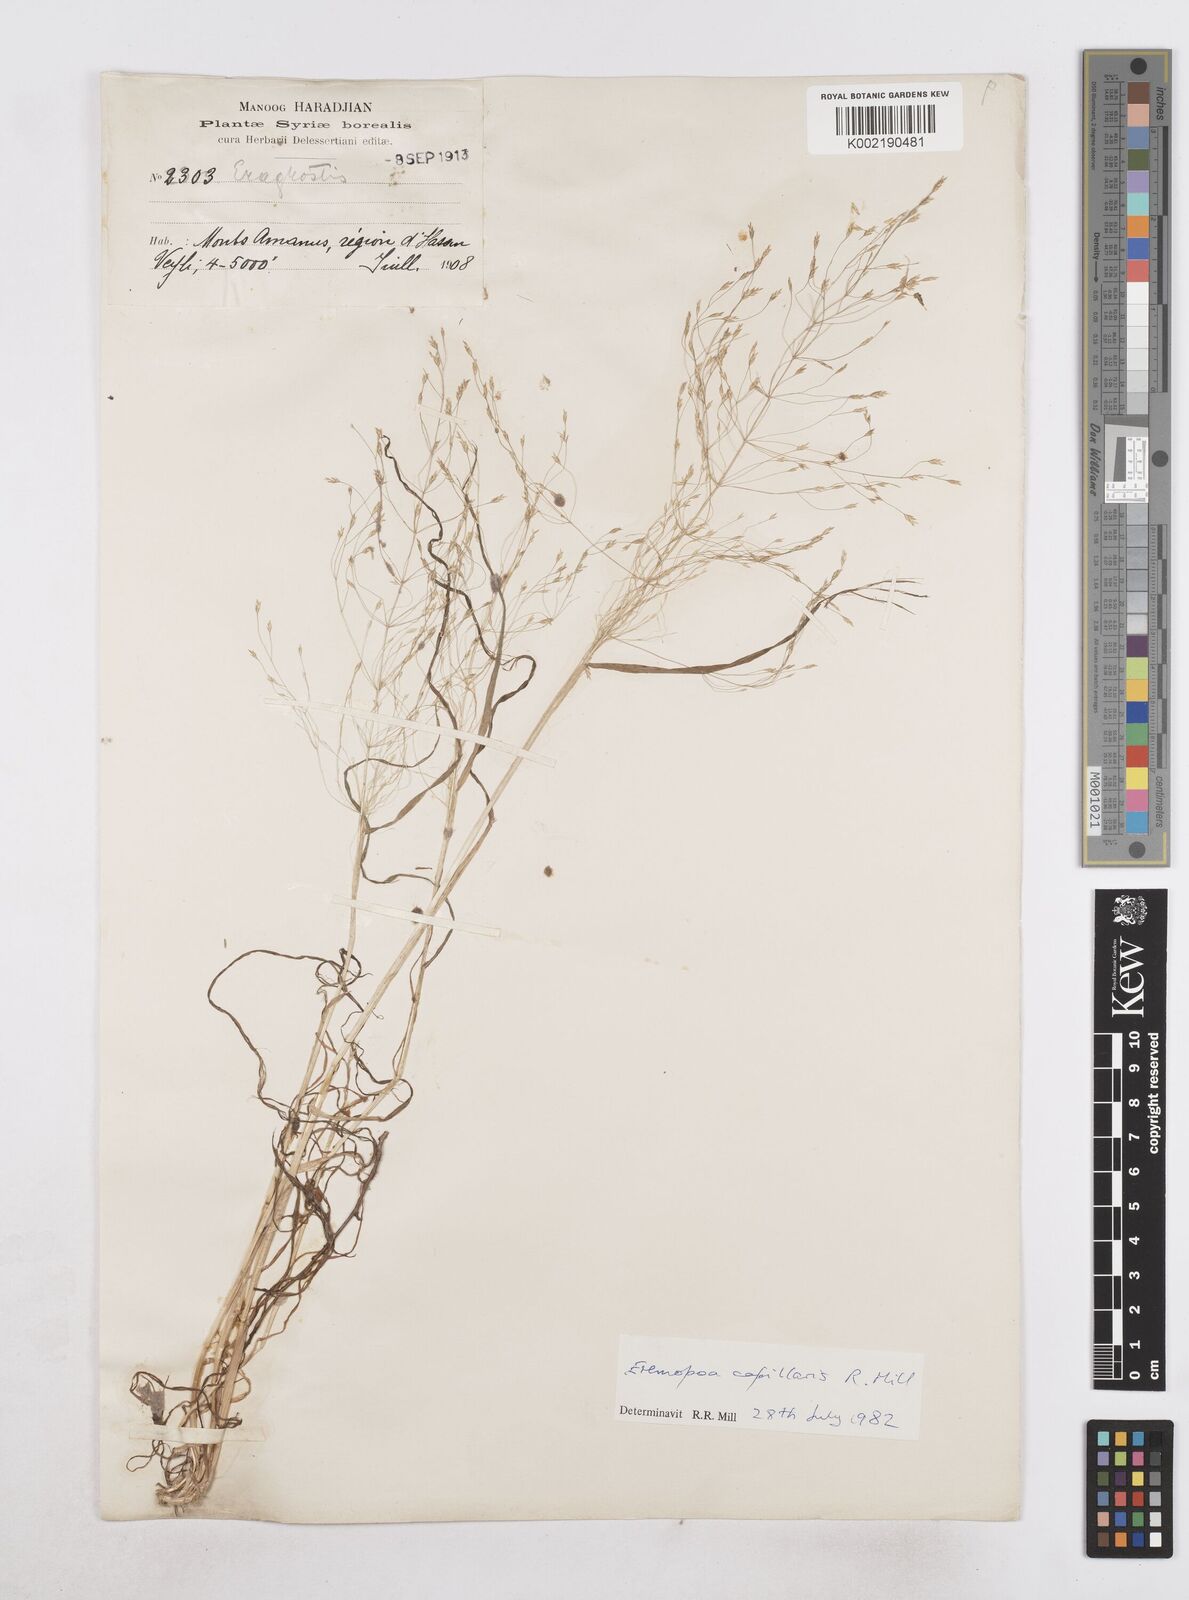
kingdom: Plantae
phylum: Tracheophyta
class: Liliopsida
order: Poales
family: Poaceae
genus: Poa
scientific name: Poa millii
